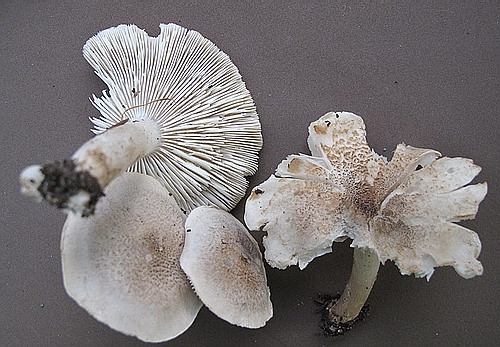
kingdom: Fungi
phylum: Basidiomycota
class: Agaricomycetes
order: Agaricales
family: Tricholomataceae
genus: Tricholoma
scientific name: Tricholoma scalpturatum
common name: gulplettet ridderhat
